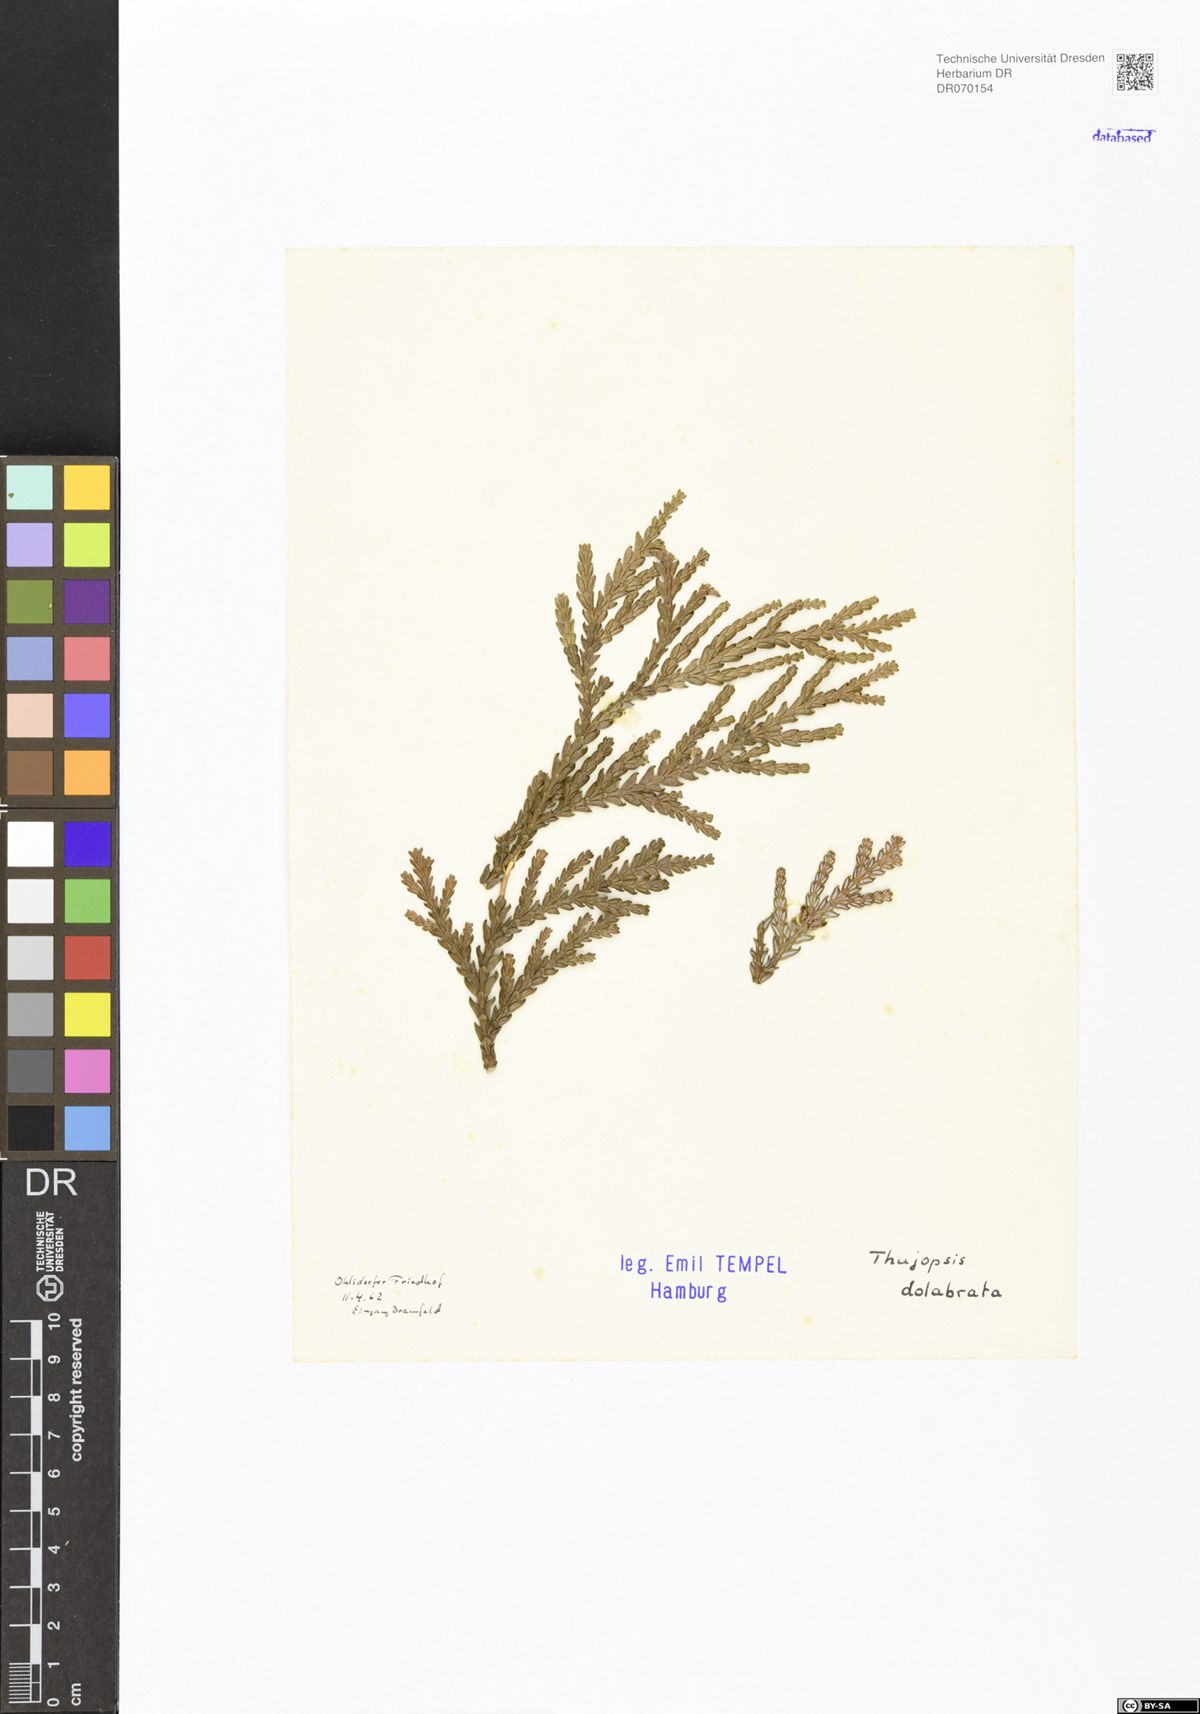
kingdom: Plantae
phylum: Tracheophyta
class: Pinopsida
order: Pinales
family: Cupressaceae
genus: Thujopsis
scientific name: Thujopsis dolabrata
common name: Hiba
